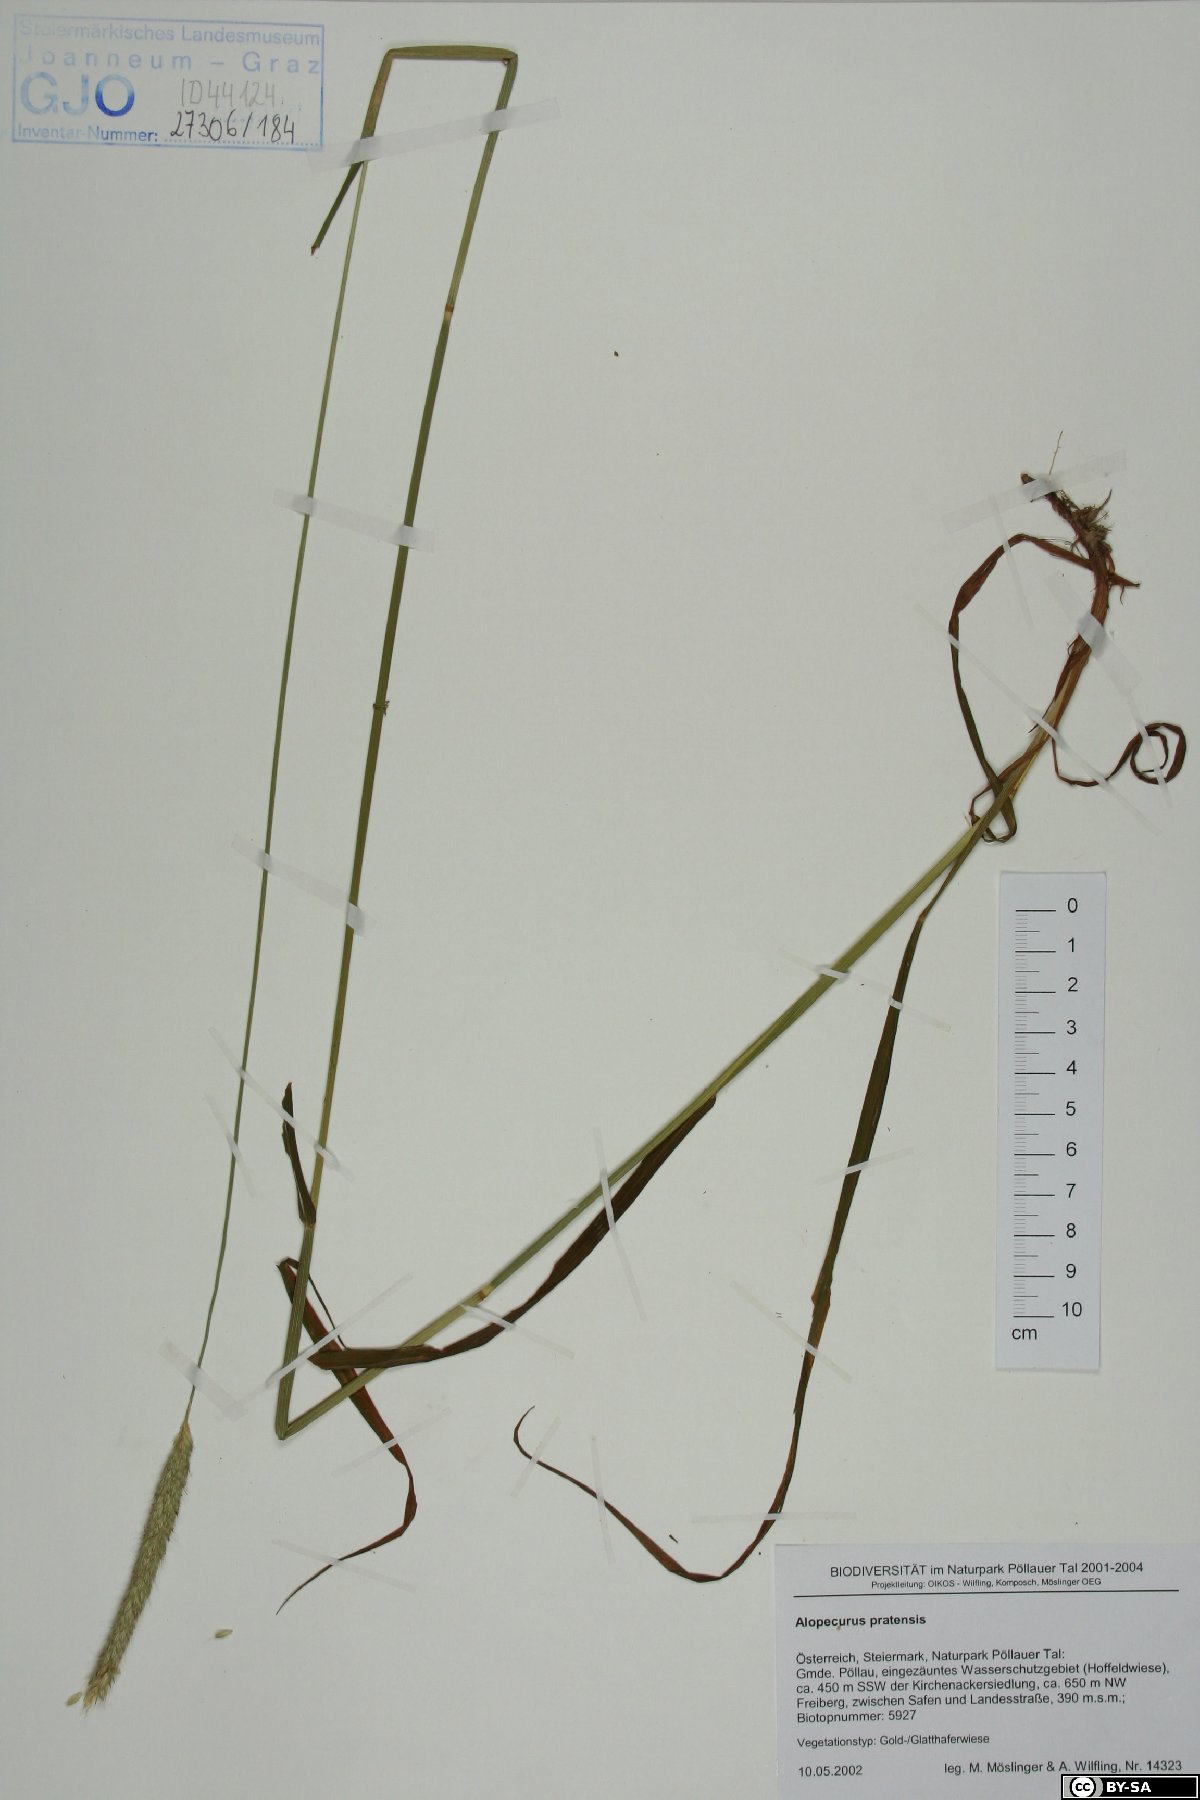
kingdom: Plantae
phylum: Tracheophyta
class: Liliopsida
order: Poales
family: Poaceae
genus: Alopecurus
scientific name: Alopecurus pratensis
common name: Meadow foxtail
